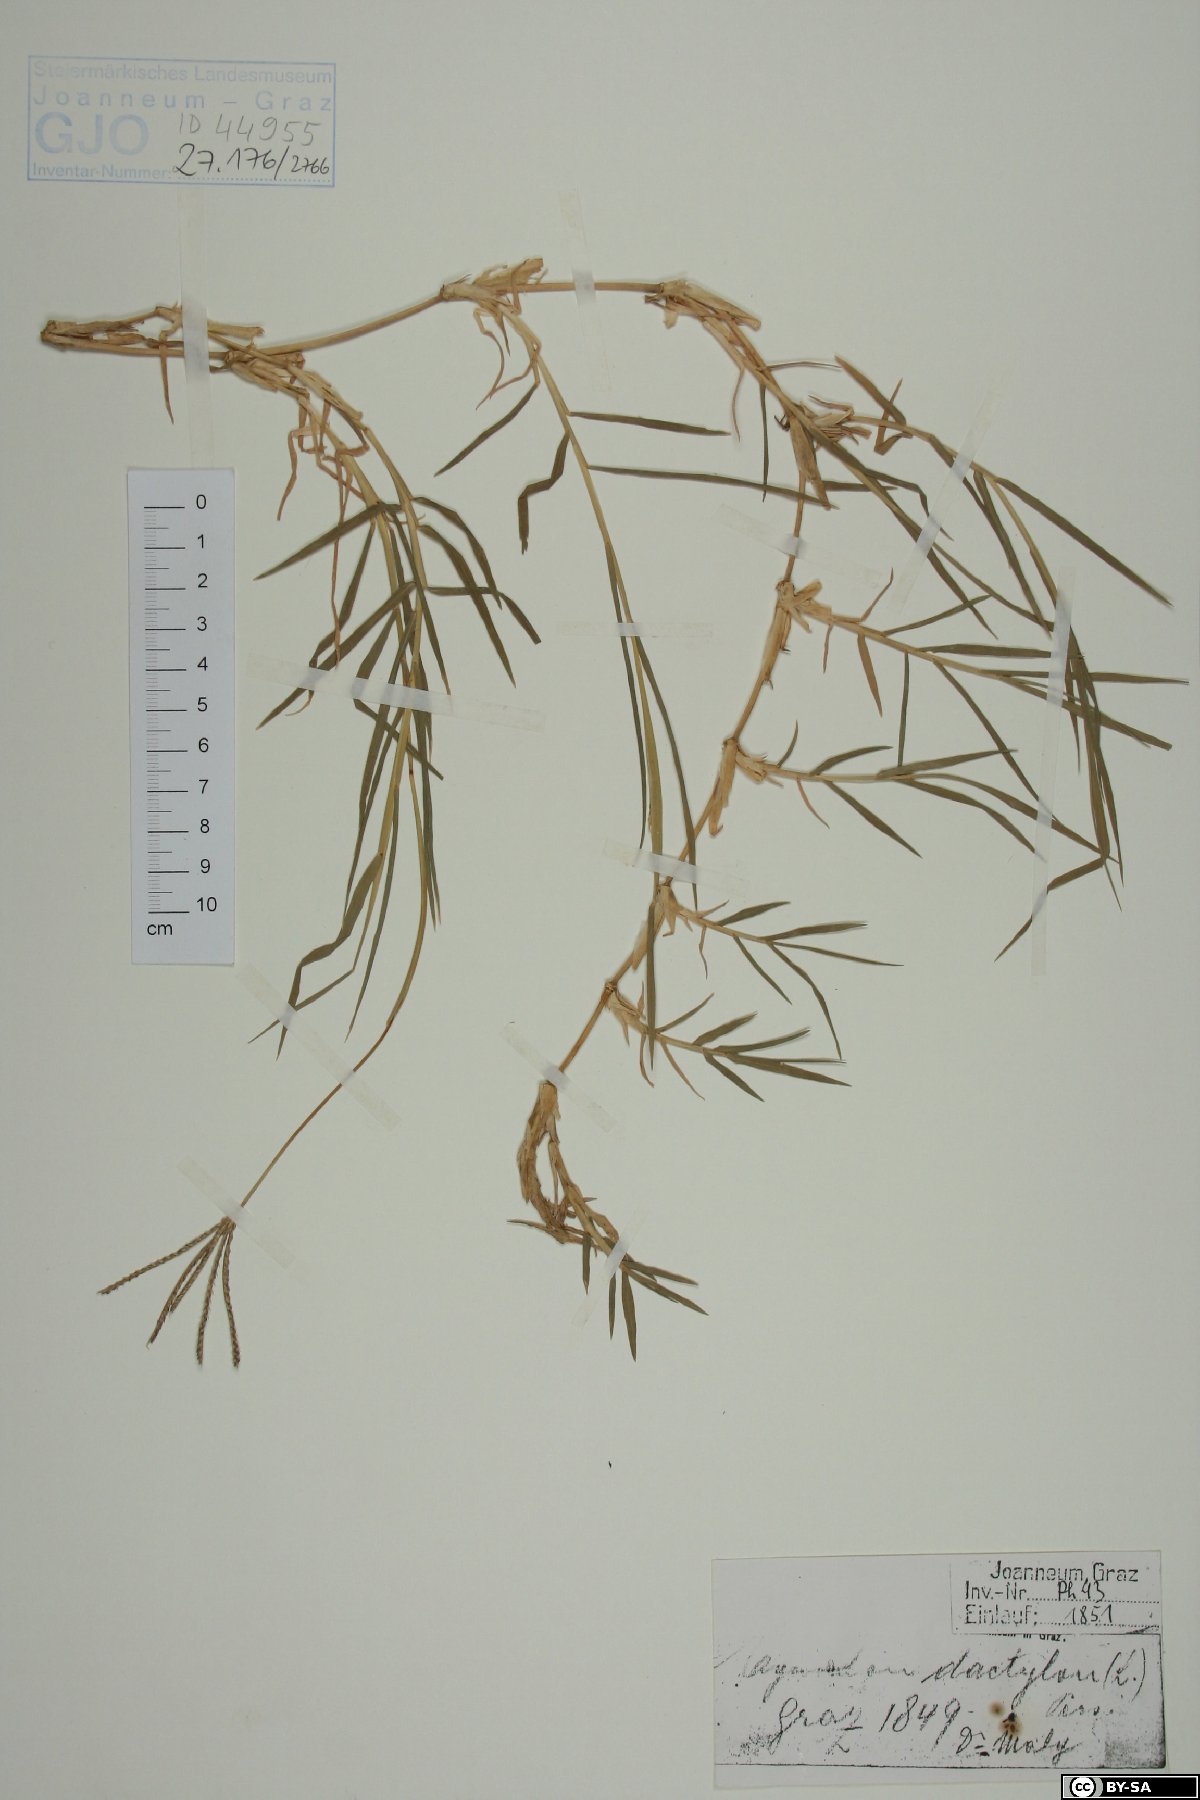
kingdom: Plantae
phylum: Tracheophyta
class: Liliopsida
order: Poales
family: Poaceae
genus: Cynodon
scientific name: Cynodon dactylon
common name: Bermuda grass
